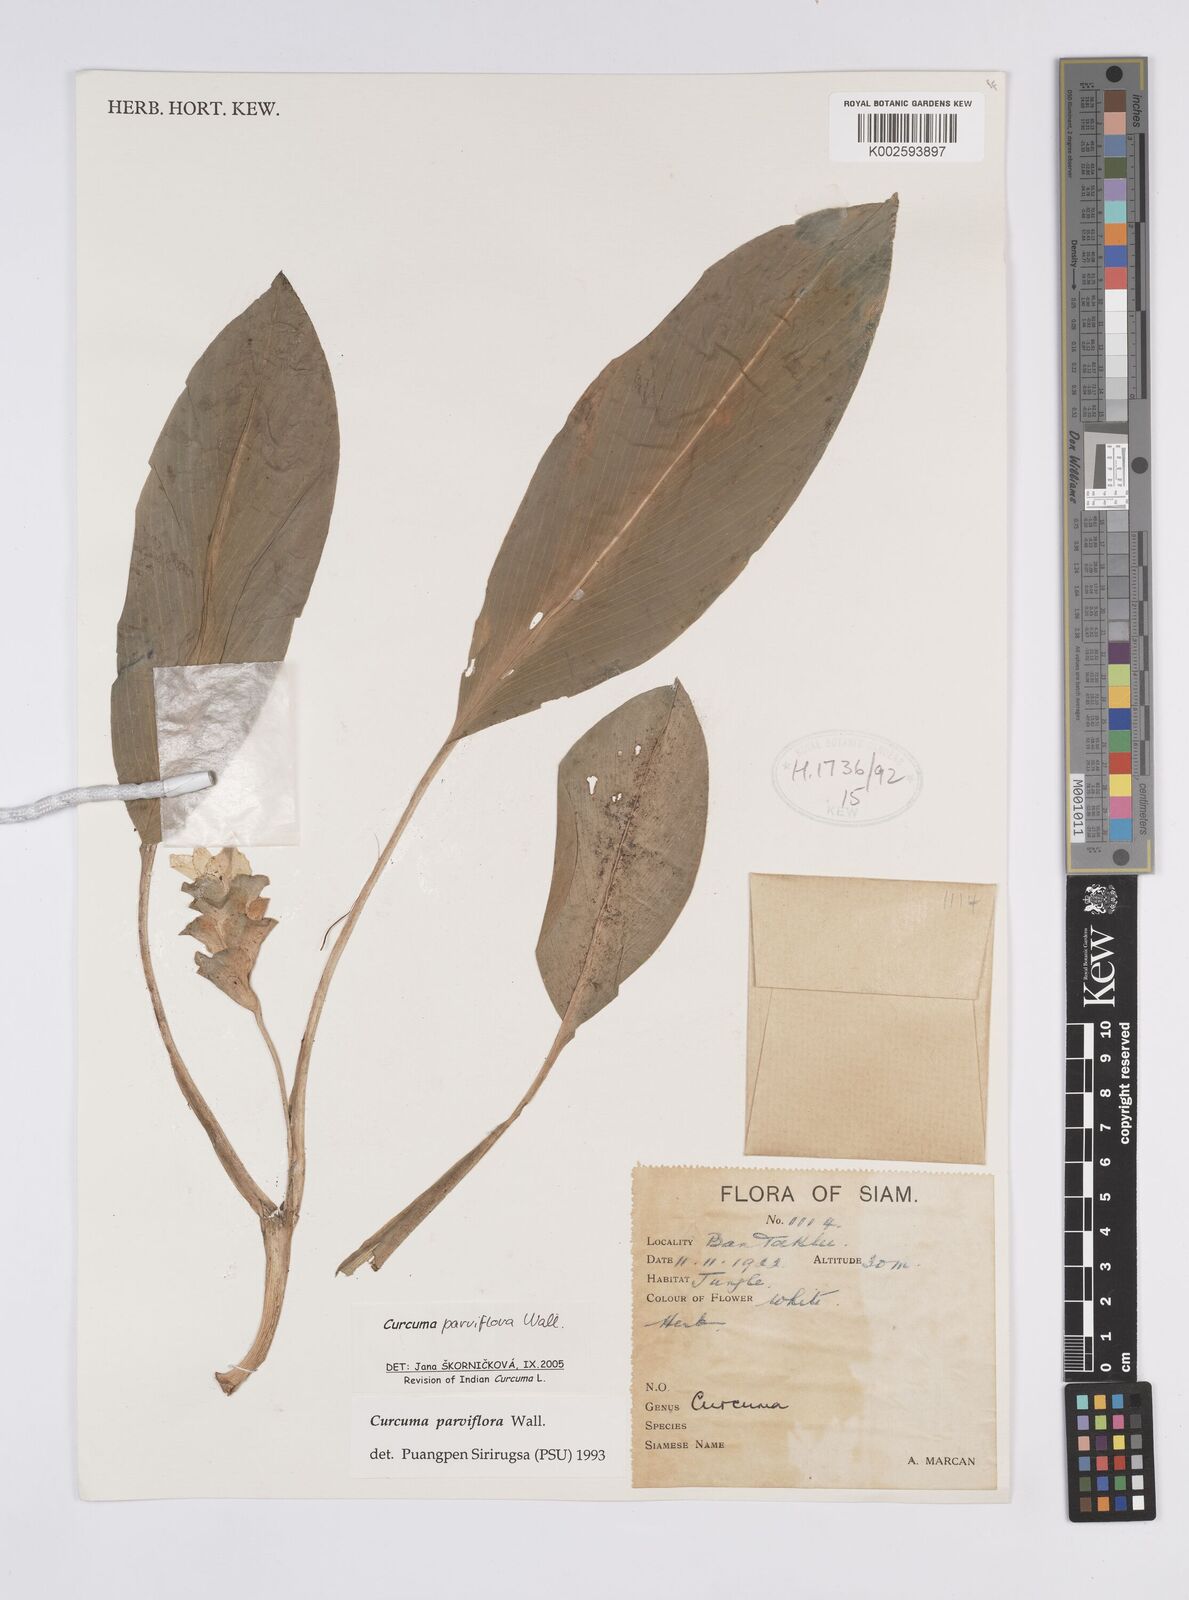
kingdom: Plantae
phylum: Tracheophyta
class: Liliopsida
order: Zingiberales
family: Zingiberaceae
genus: Curcuma
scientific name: Curcuma parviflora
